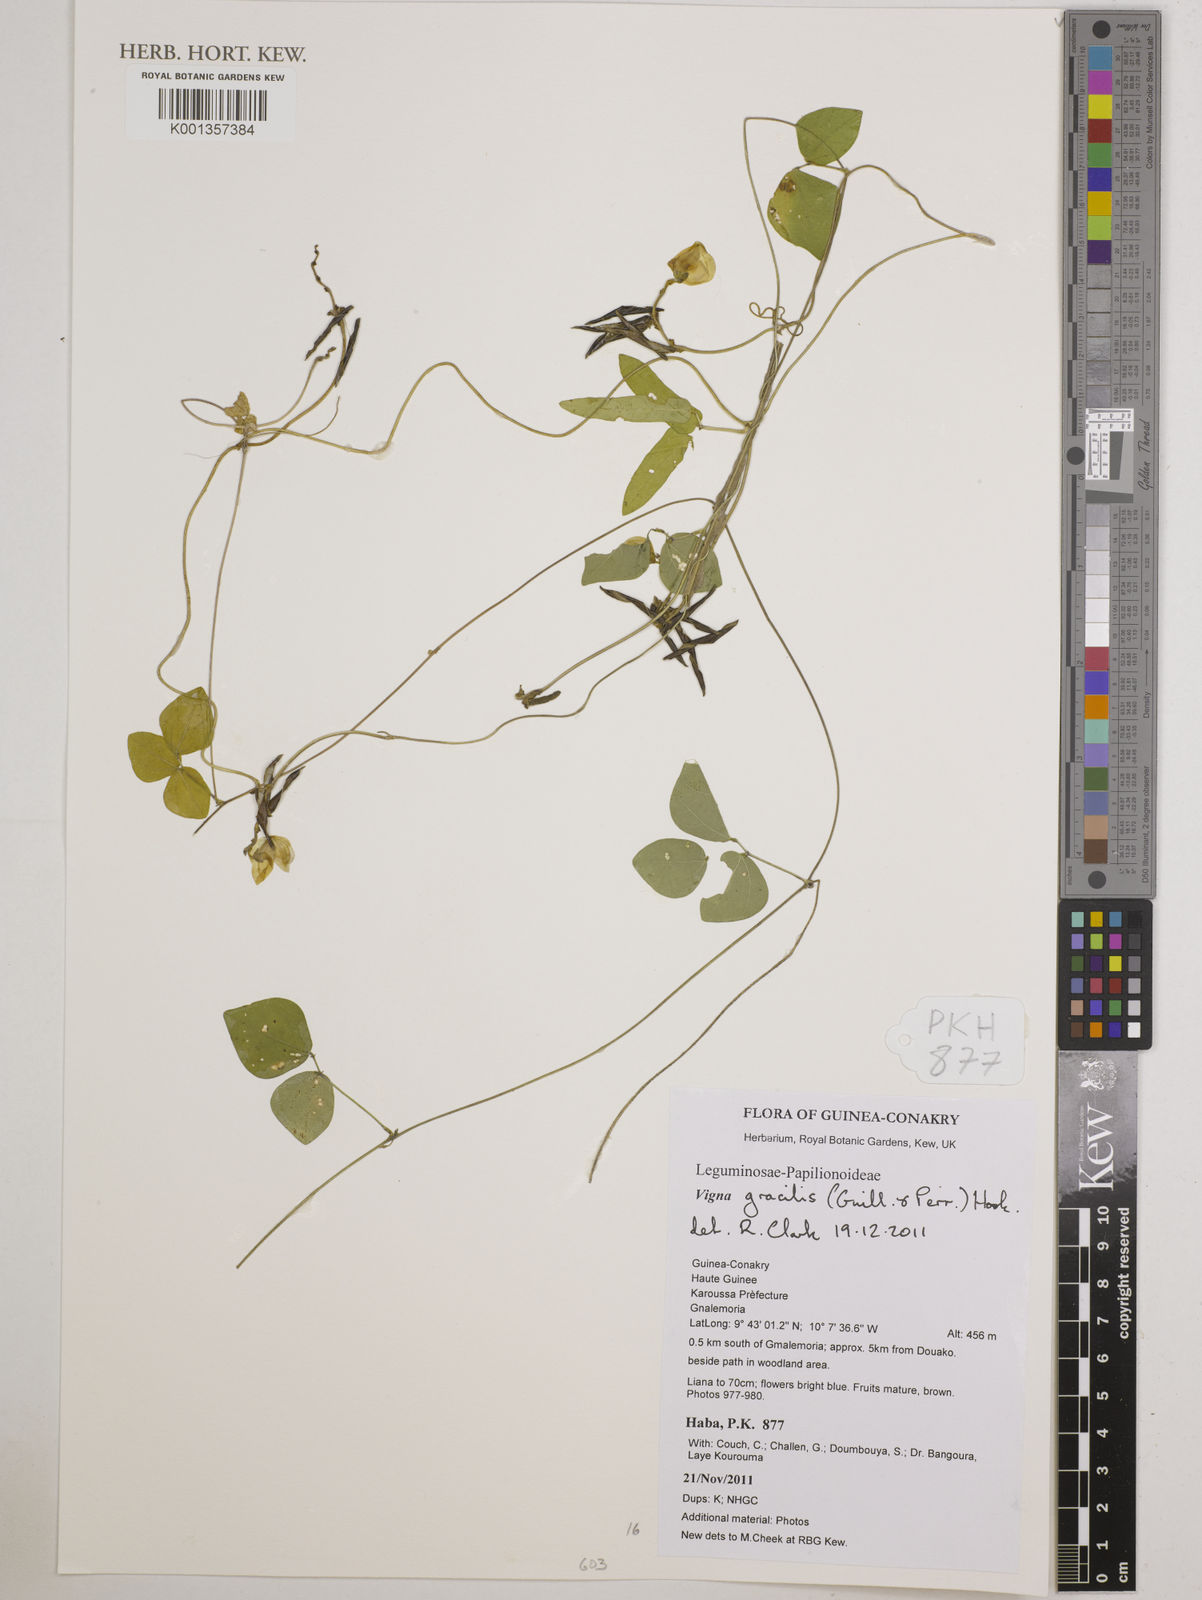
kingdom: Plantae
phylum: Tracheophyta
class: Magnoliopsida
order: Fabales
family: Fabaceae
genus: Vigna
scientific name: Vigna gracilis
